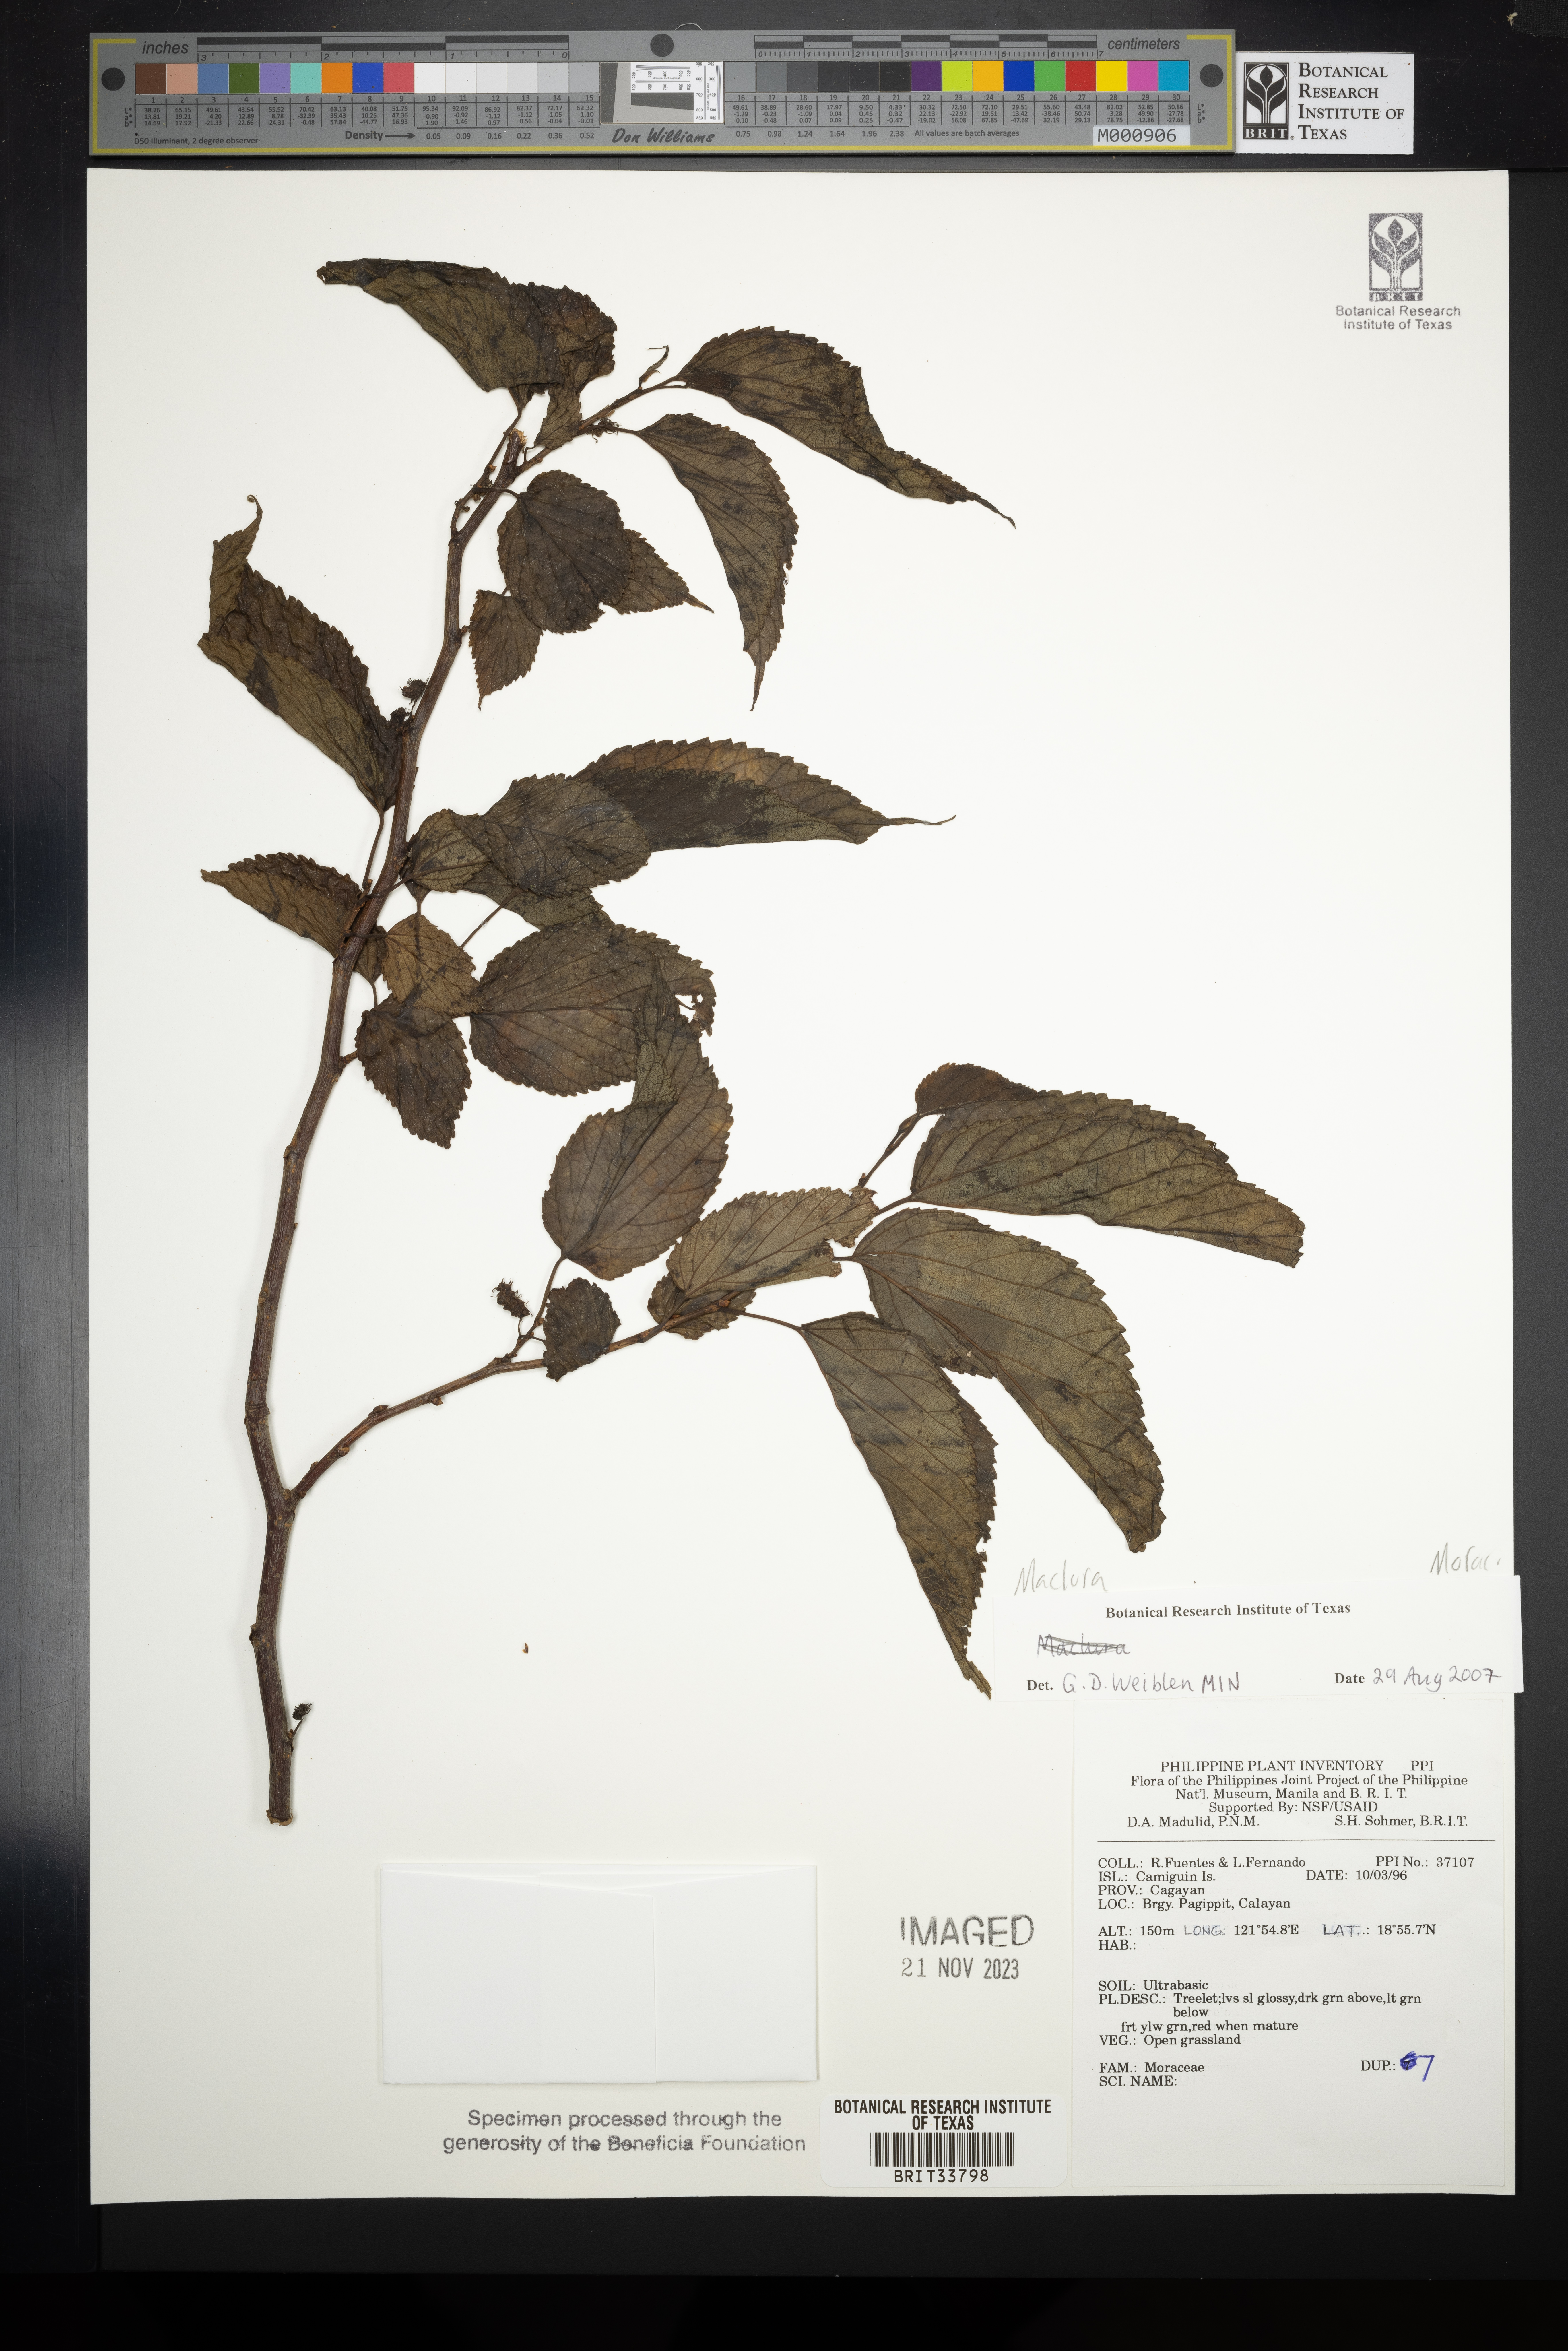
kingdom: Plantae
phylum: Tracheophyta
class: Magnoliopsida
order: Rosales
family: Moraceae
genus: Maclura
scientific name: Maclura
